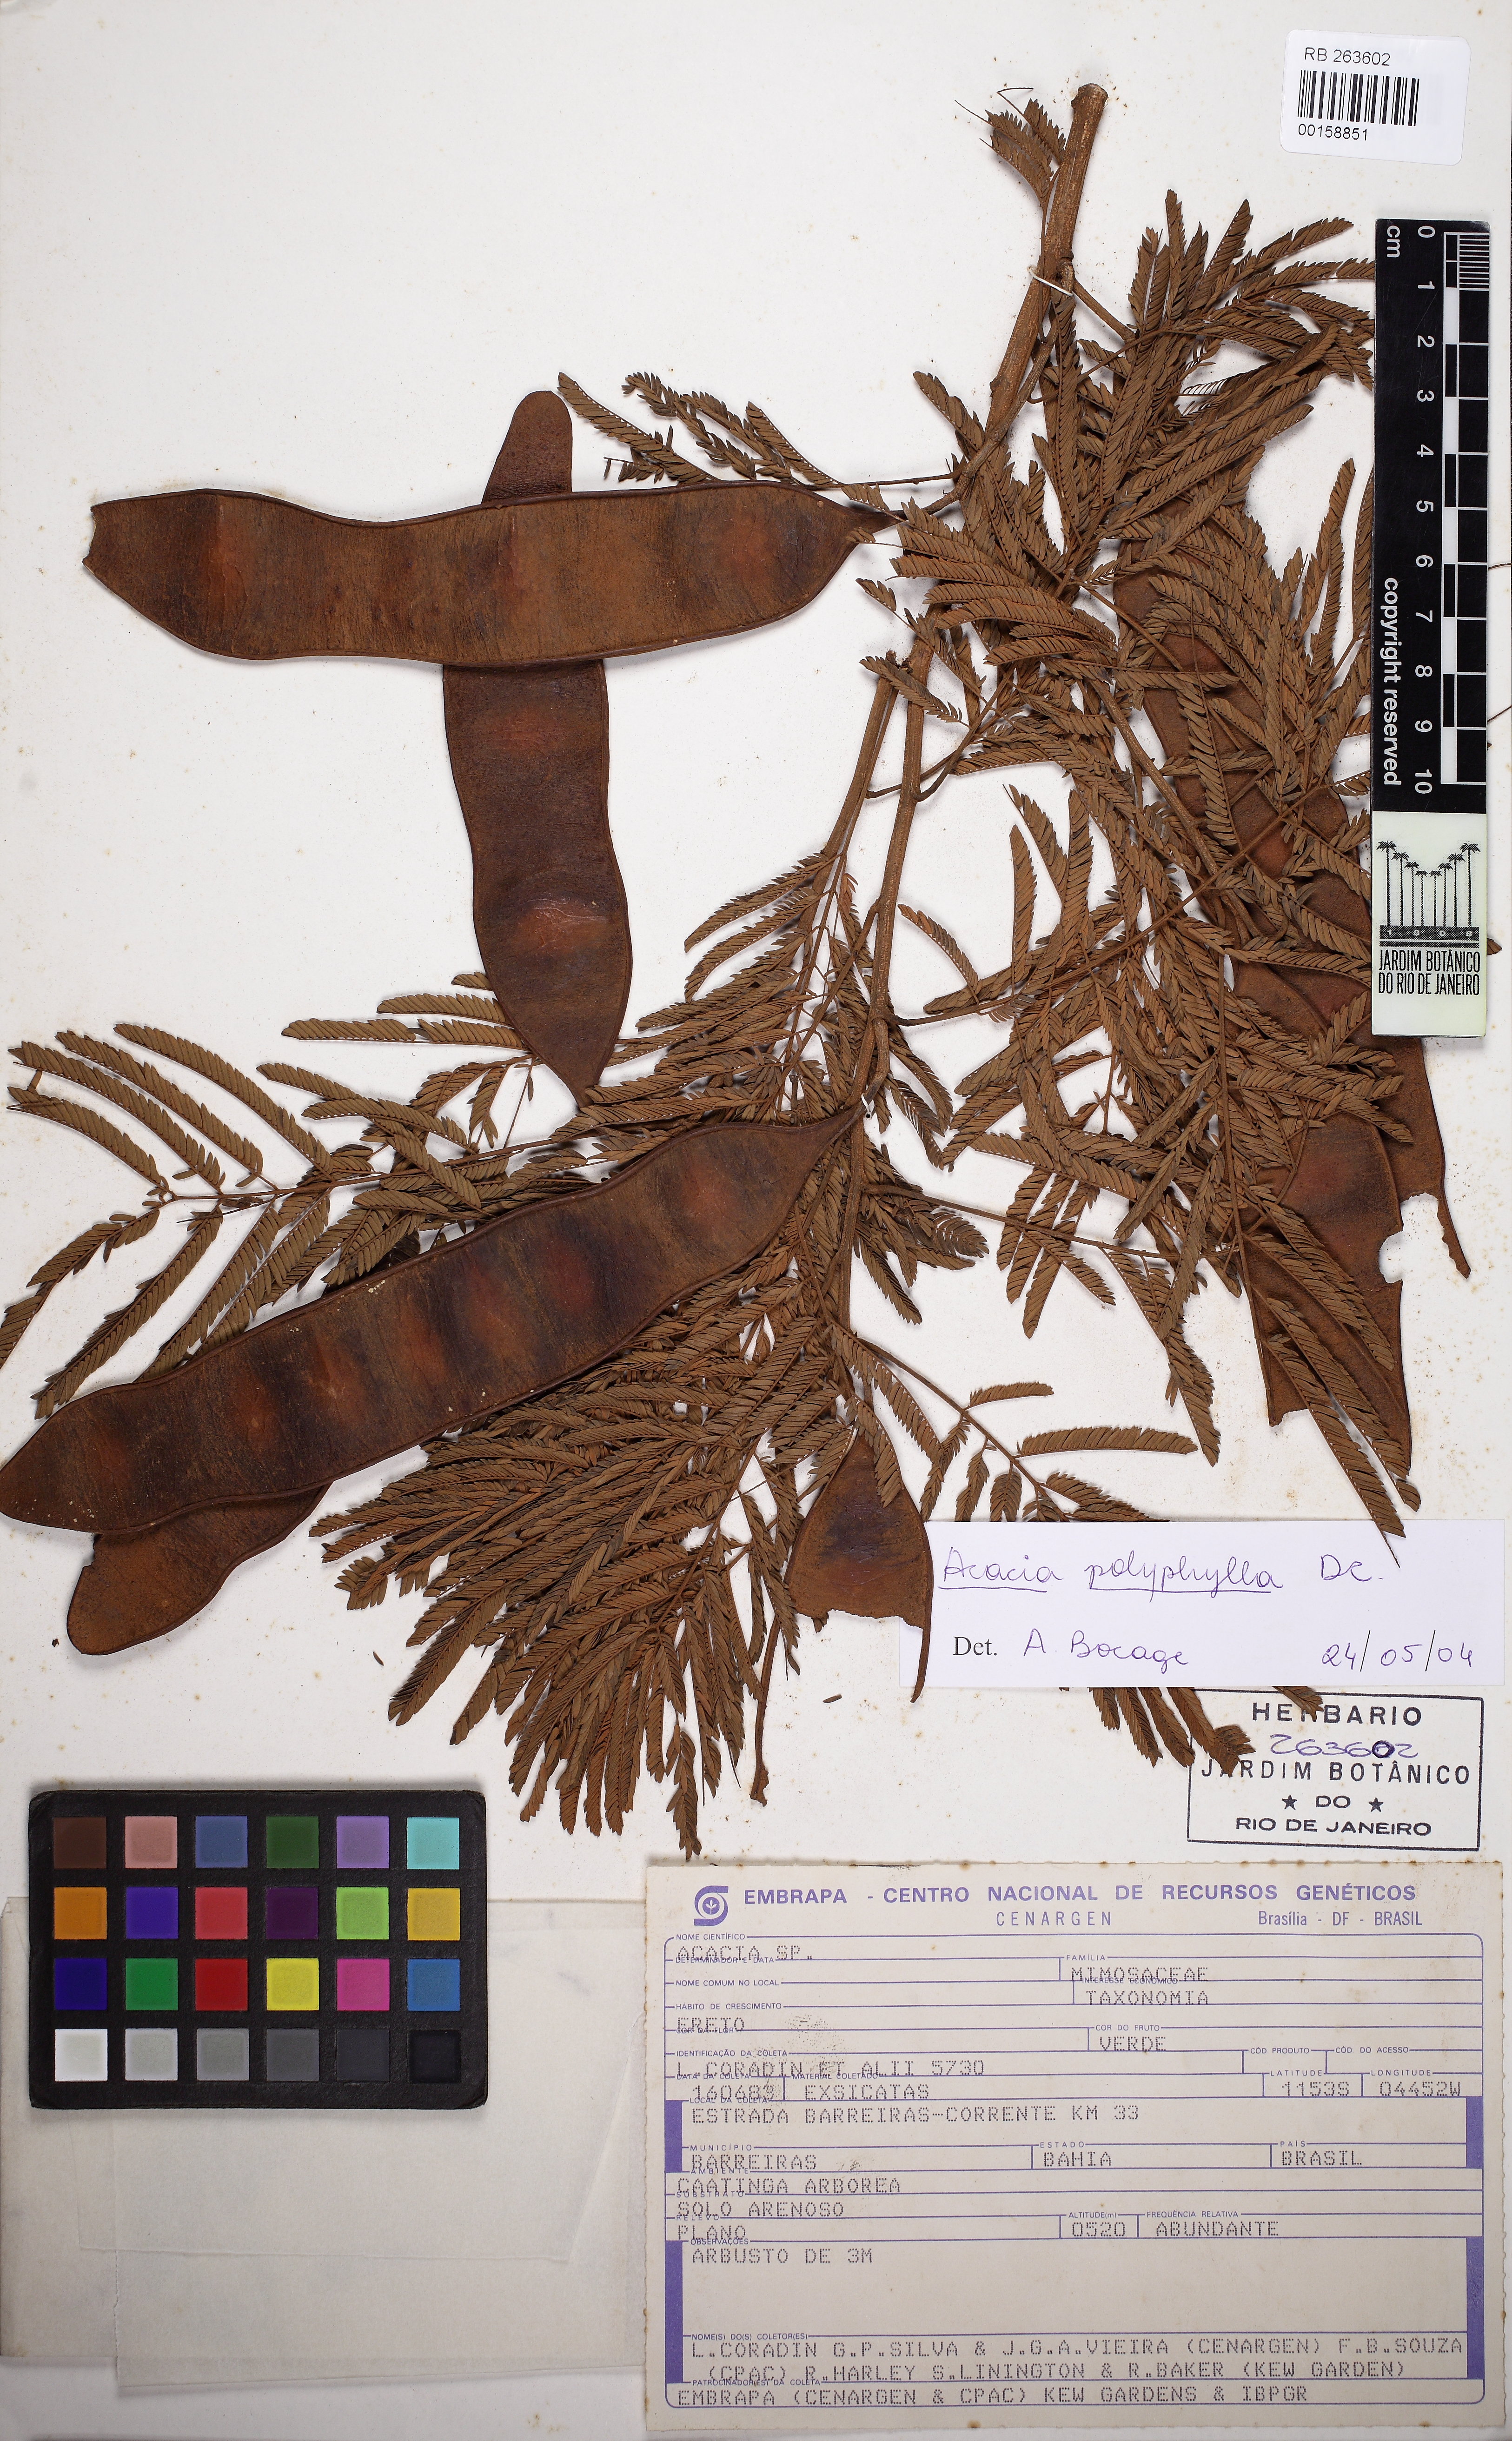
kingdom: Plantae
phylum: Tracheophyta
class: Magnoliopsida
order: Fabales
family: Fabaceae
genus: Senegalia
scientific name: Senegalia polyphylla
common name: White-tamarind
